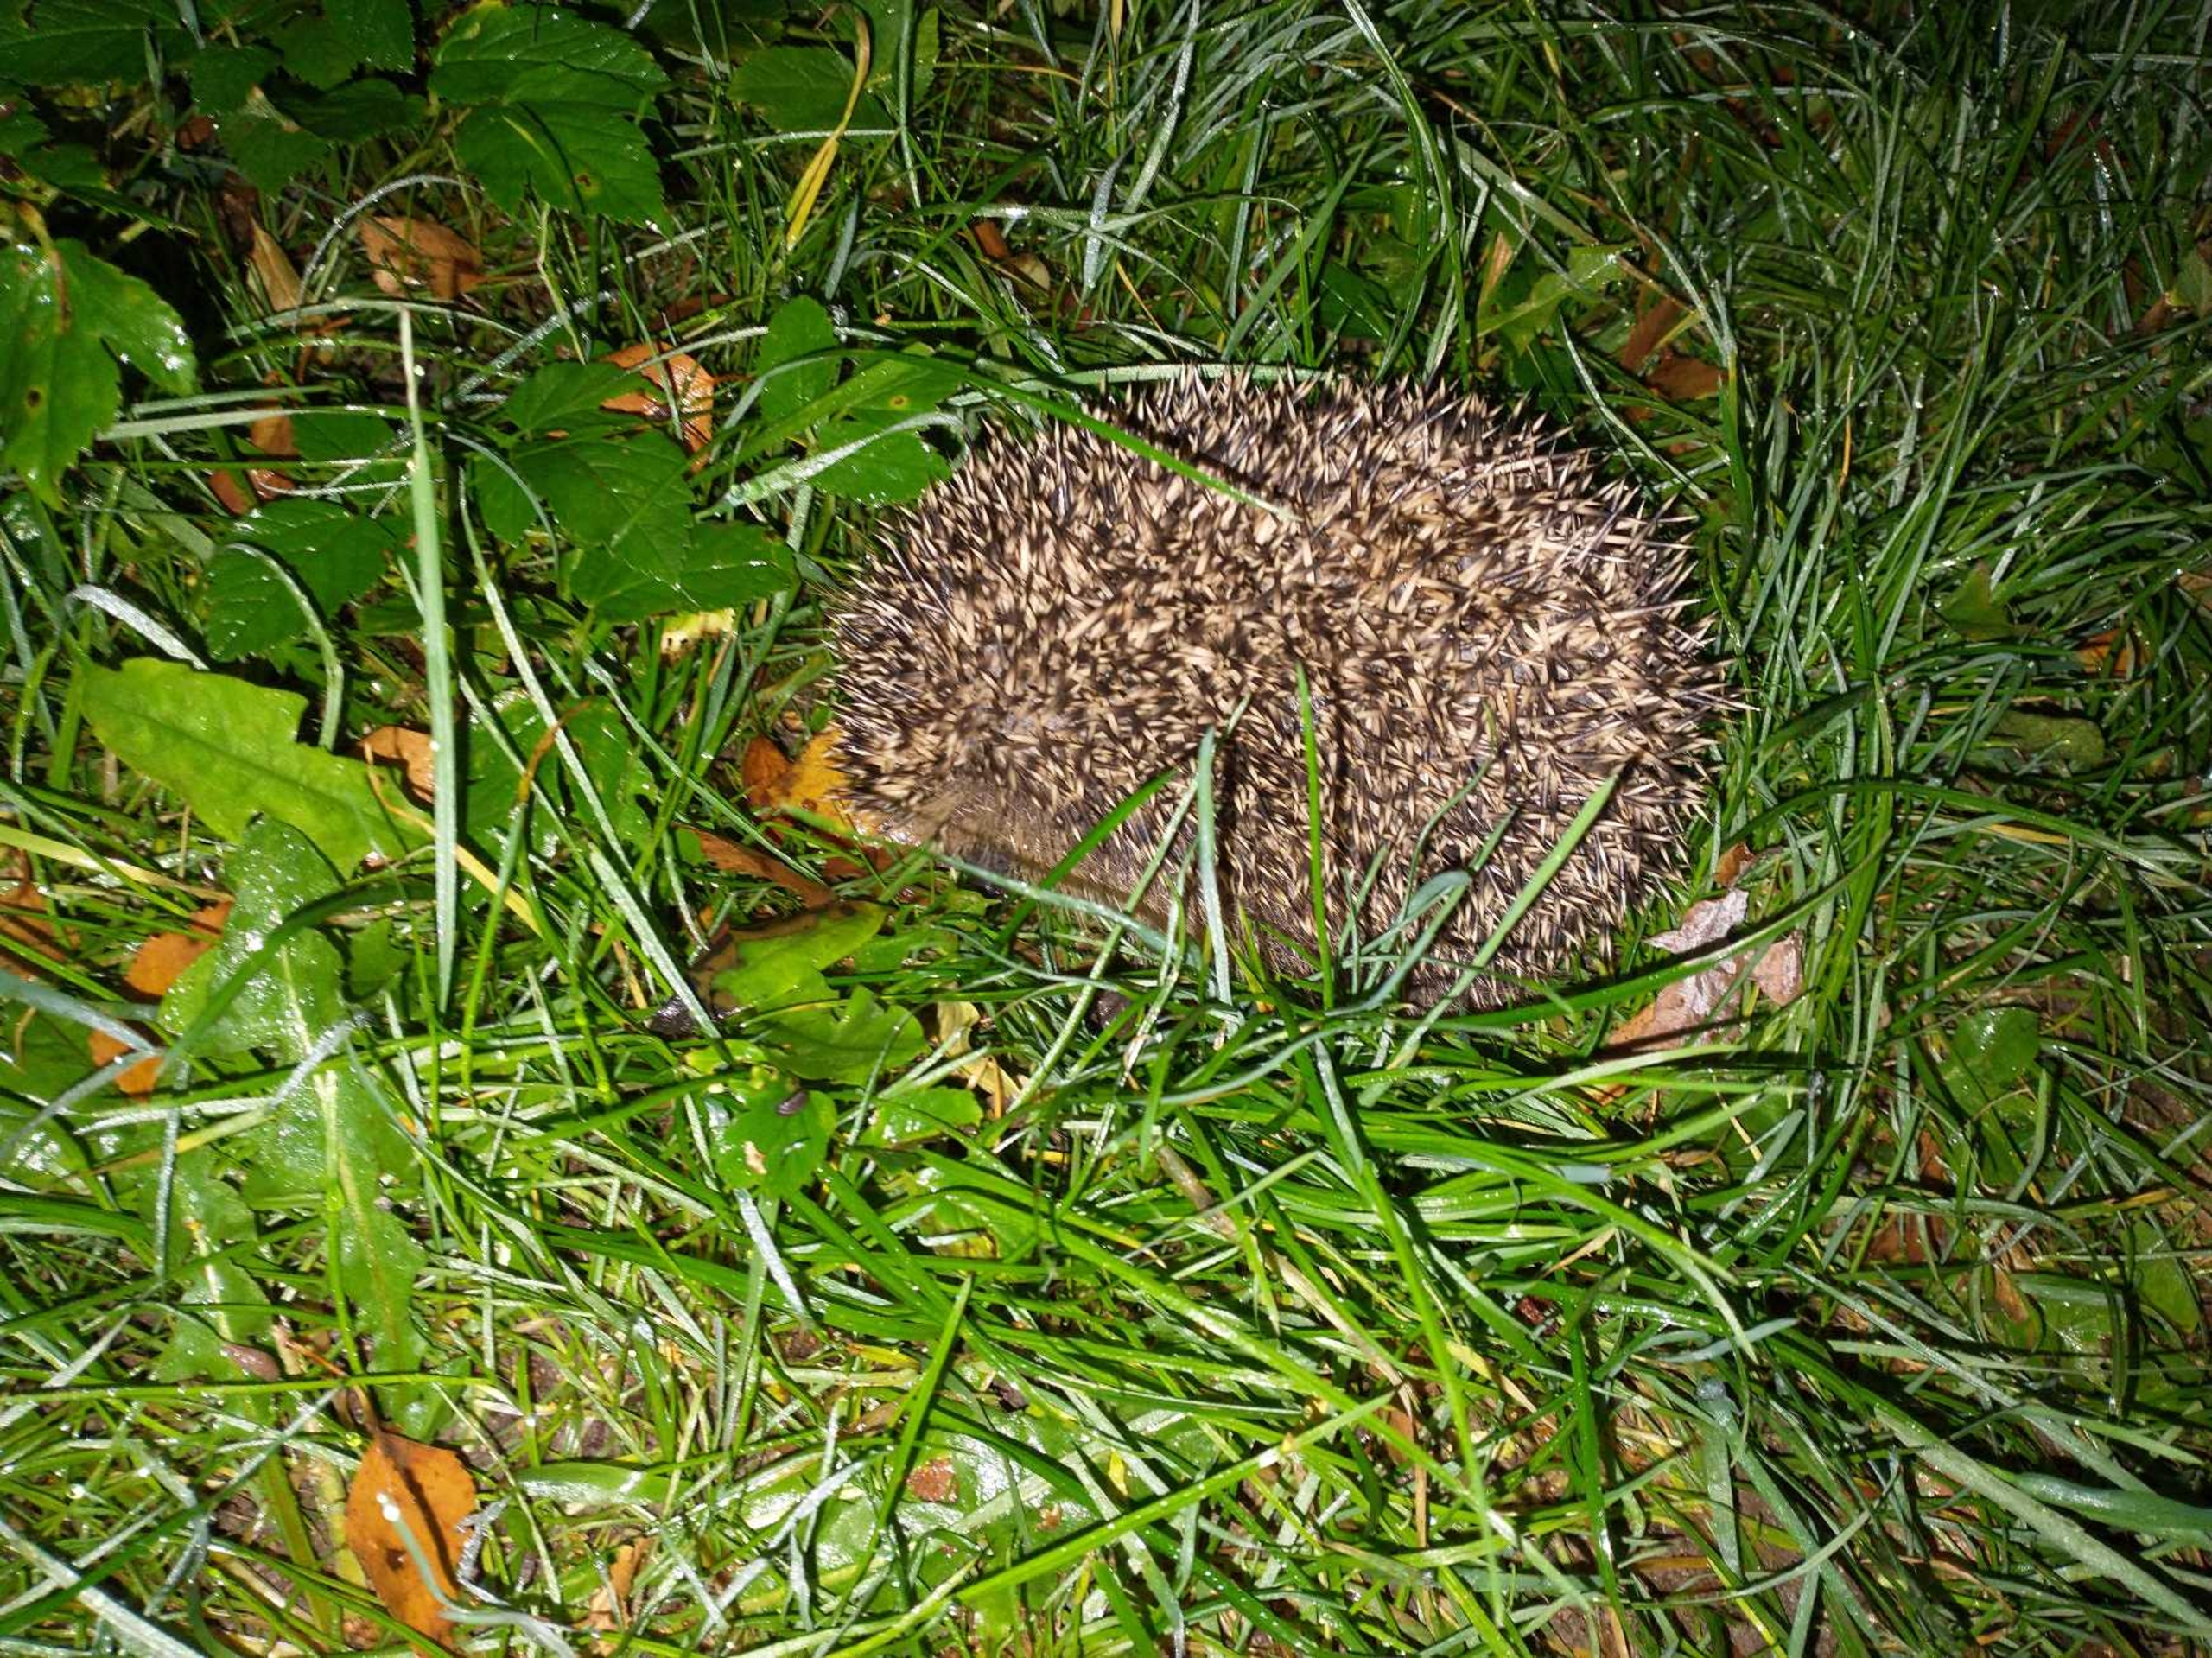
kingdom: Animalia
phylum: Chordata
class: Mammalia
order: Erinaceomorpha
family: Erinaceidae
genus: Erinaceus
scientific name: Erinaceus europaeus
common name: Pindsvin
